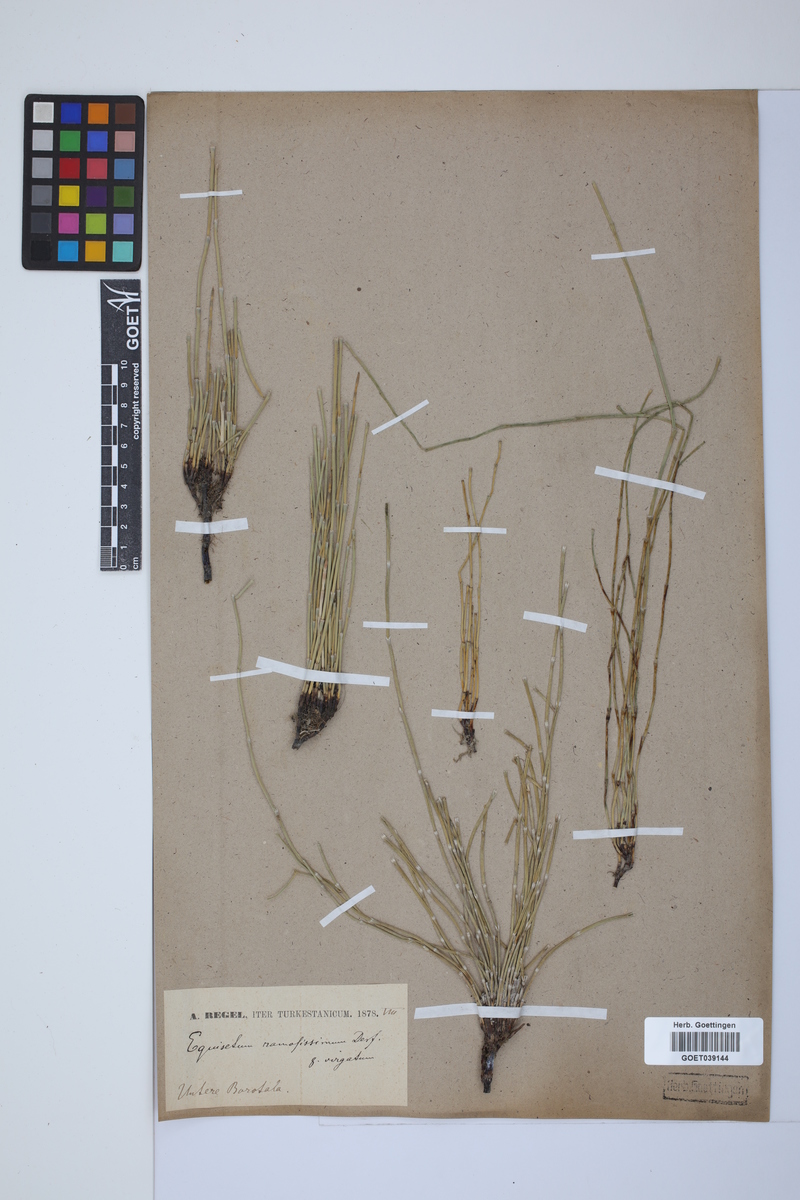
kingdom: Plantae
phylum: Tracheophyta
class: Polypodiopsida
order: Equisetales
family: Equisetaceae
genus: Equisetum
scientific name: Equisetum giganteum
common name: Giant horsetail
